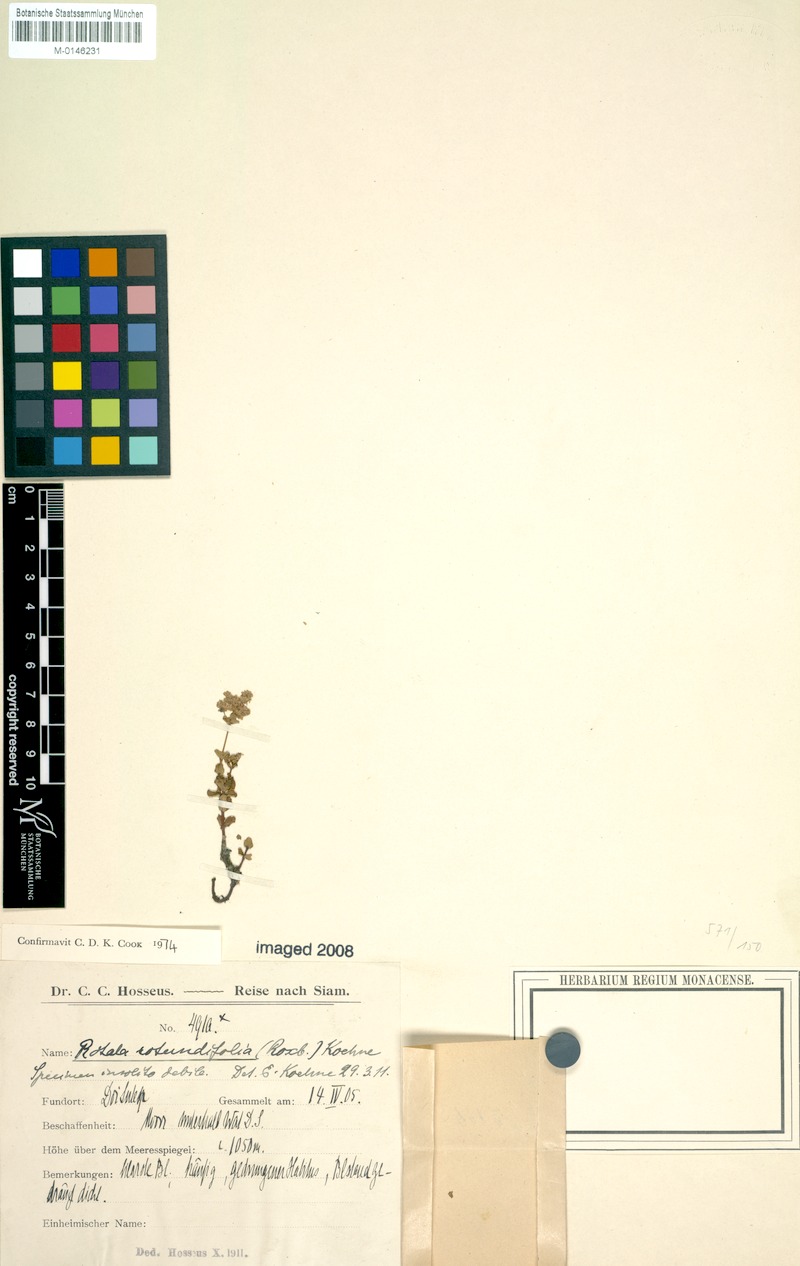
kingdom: Plantae
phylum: Tracheophyta
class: Magnoliopsida
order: Myrtales
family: Lythraceae
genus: Rotala
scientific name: Rotala rotundifolia
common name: Roundleaf toothcup
